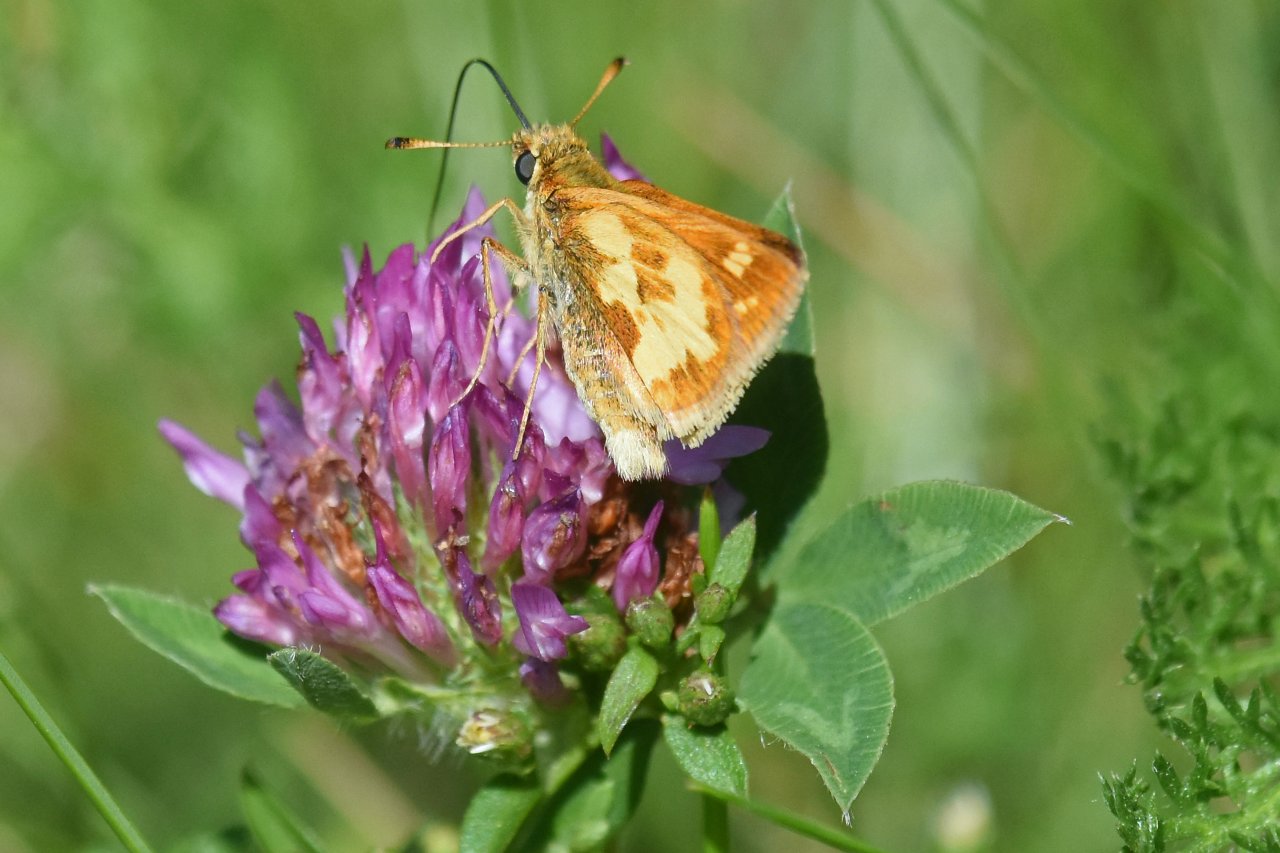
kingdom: Animalia
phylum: Arthropoda
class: Insecta
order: Lepidoptera
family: Hesperiidae
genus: Polites
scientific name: Polites coras
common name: Peck's Skipper
